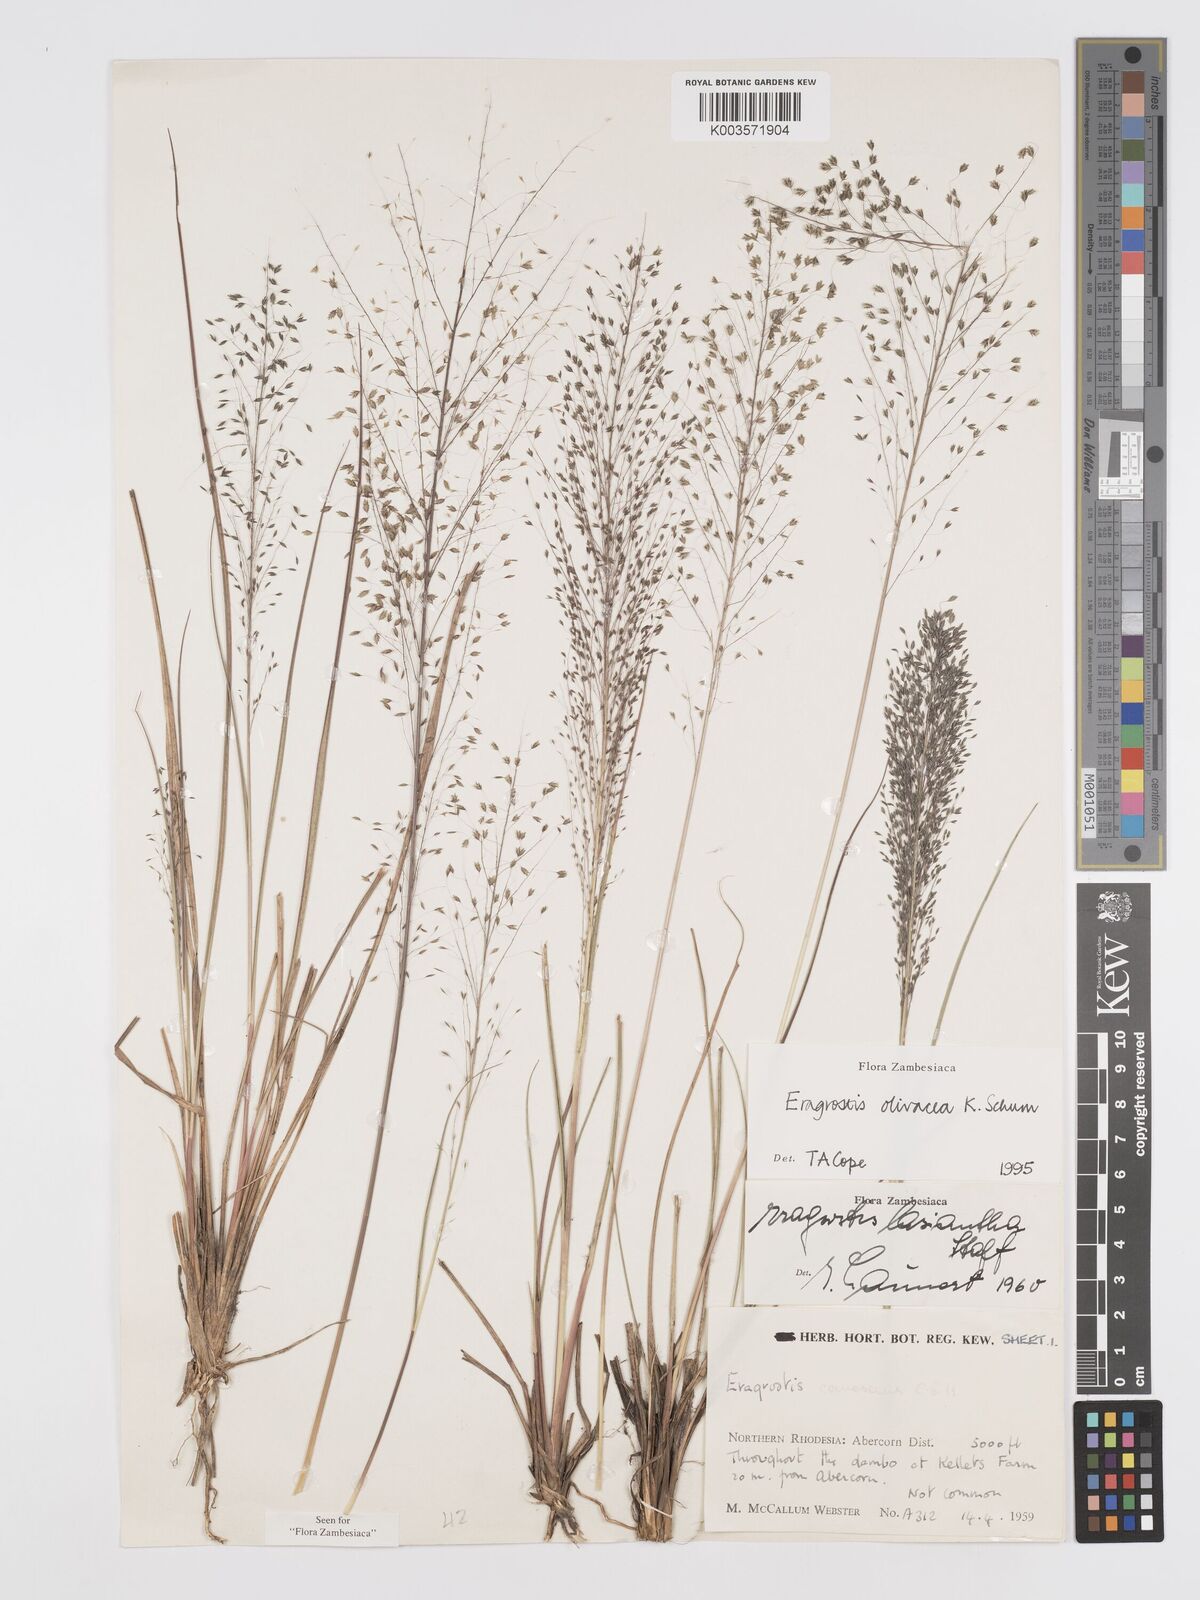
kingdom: Plantae
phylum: Tracheophyta
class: Liliopsida
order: Poales
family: Poaceae
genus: Eragrostis
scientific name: Eragrostis olivacea
